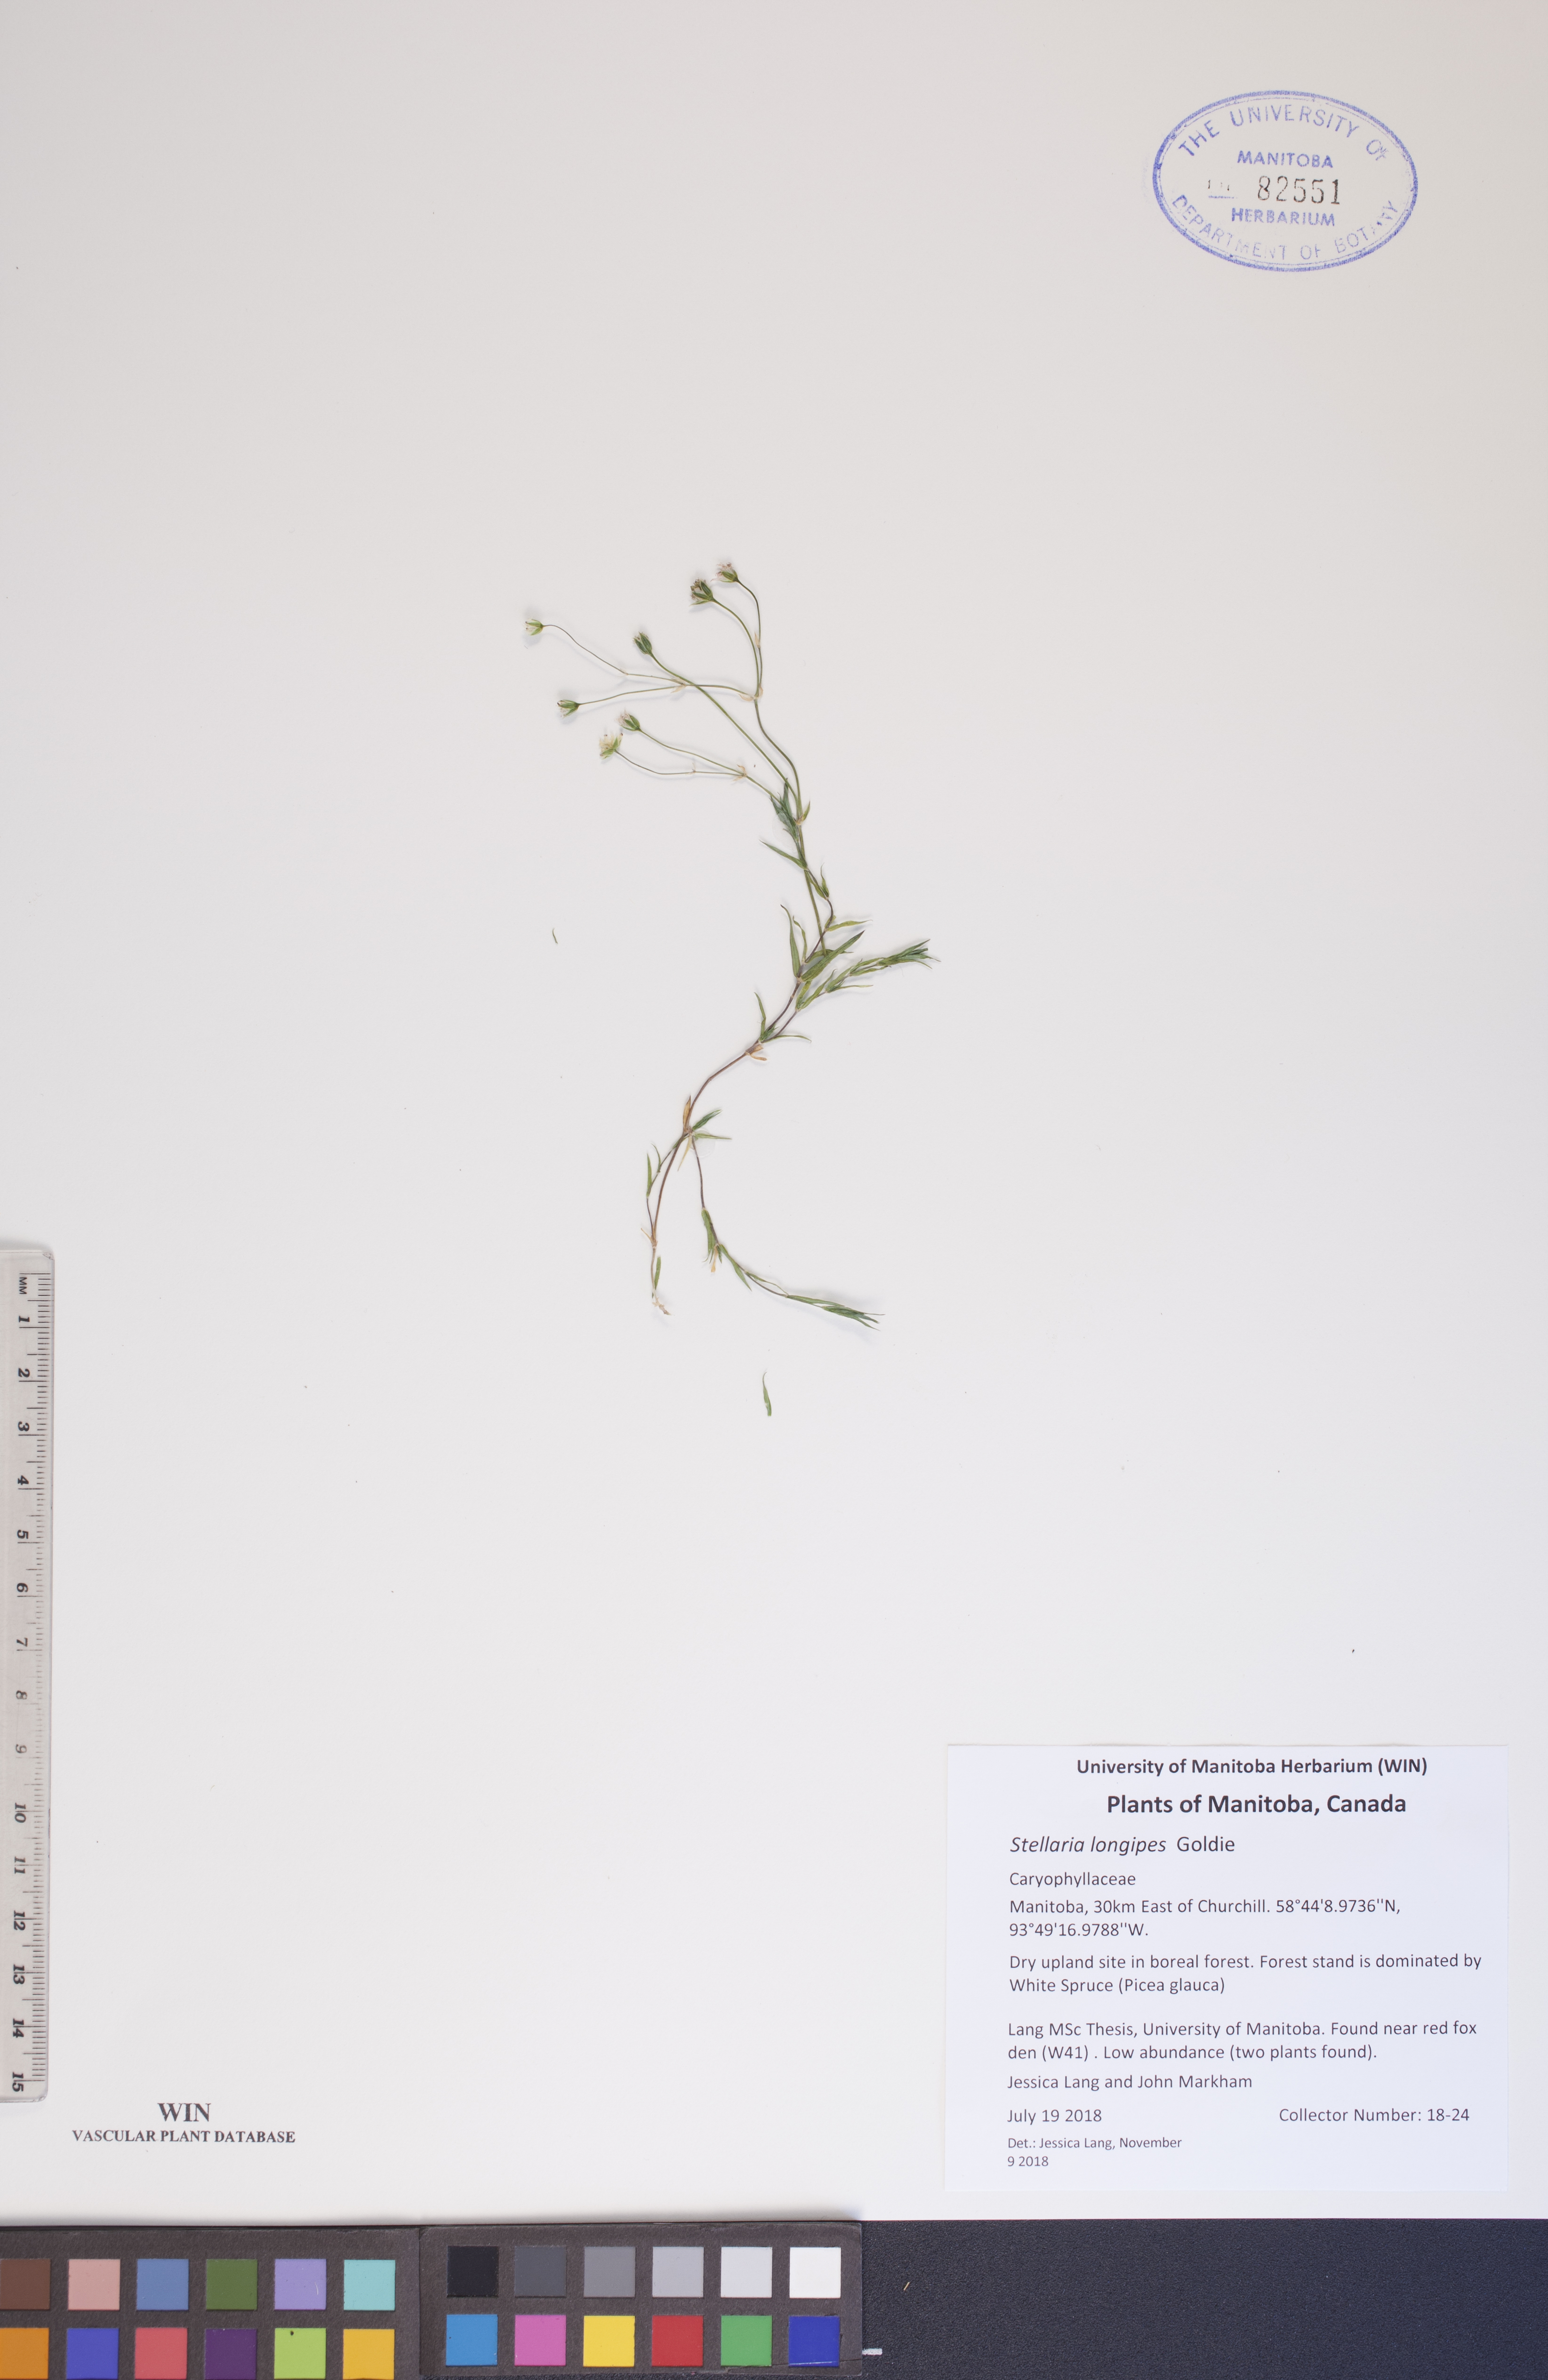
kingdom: Plantae
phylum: Tracheophyta
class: Magnoliopsida
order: Caryophyllales
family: Caryophyllaceae
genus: Stellaria
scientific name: Stellaria longipes
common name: Goldie's starwort
